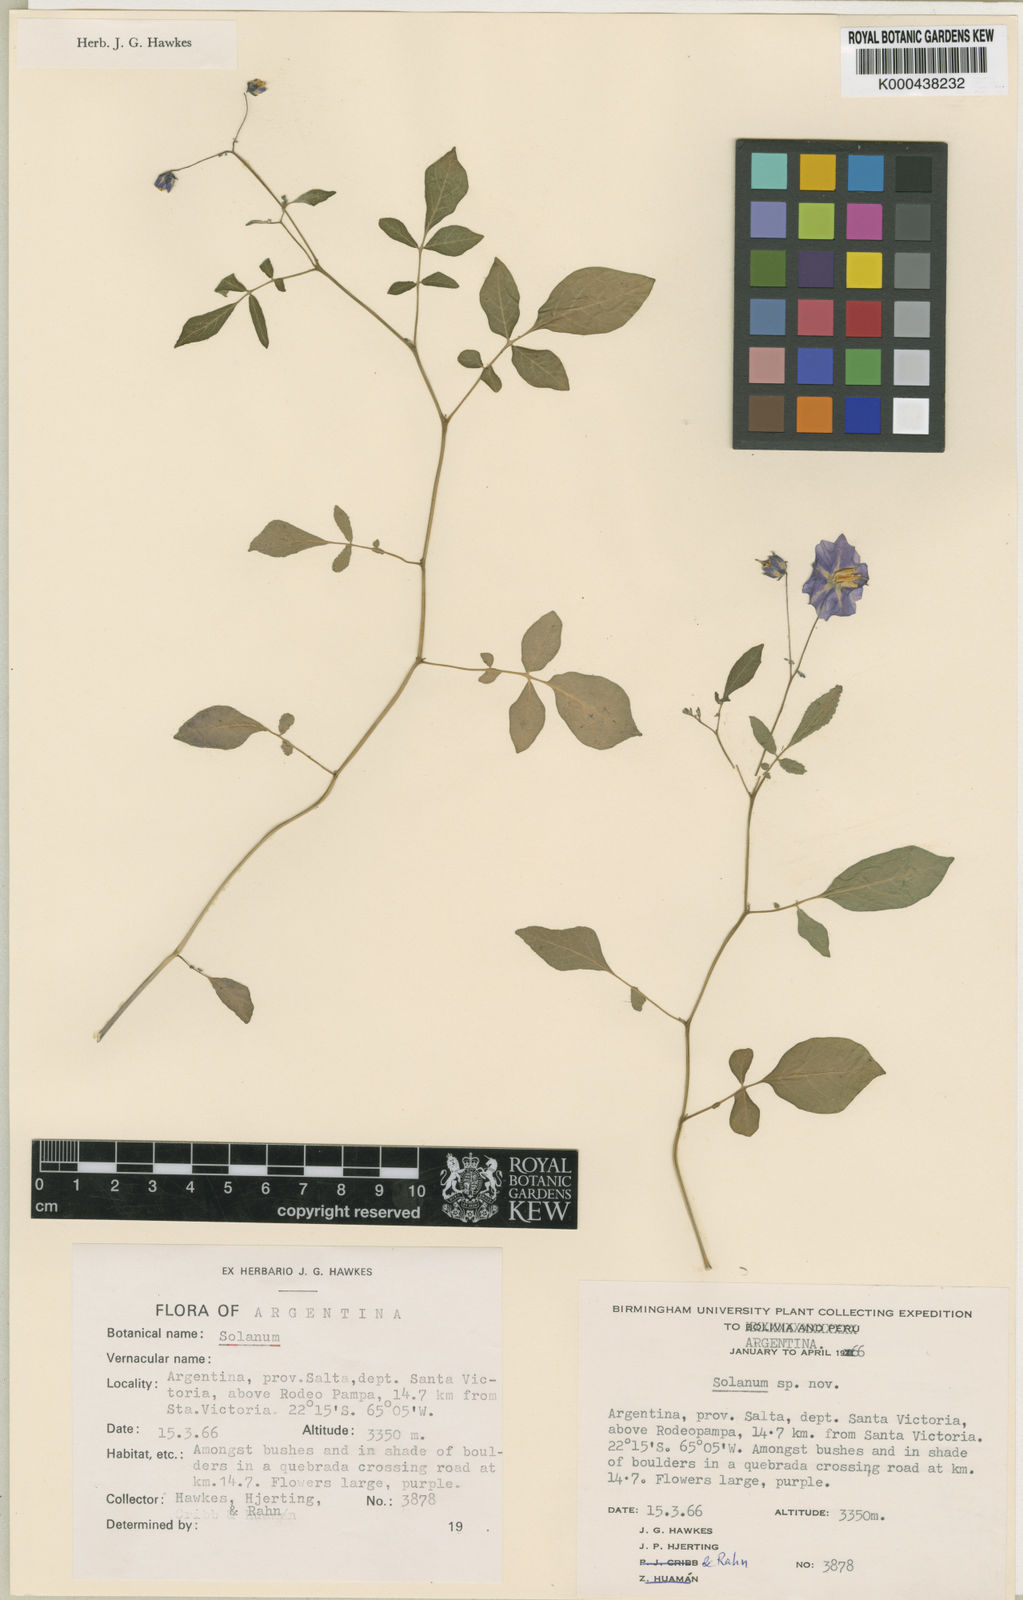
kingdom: Plantae
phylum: Tracheophyta
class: Magnoliopsida
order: Solanales
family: Solanaceae
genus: Solanum
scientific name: Solanum neorossii
